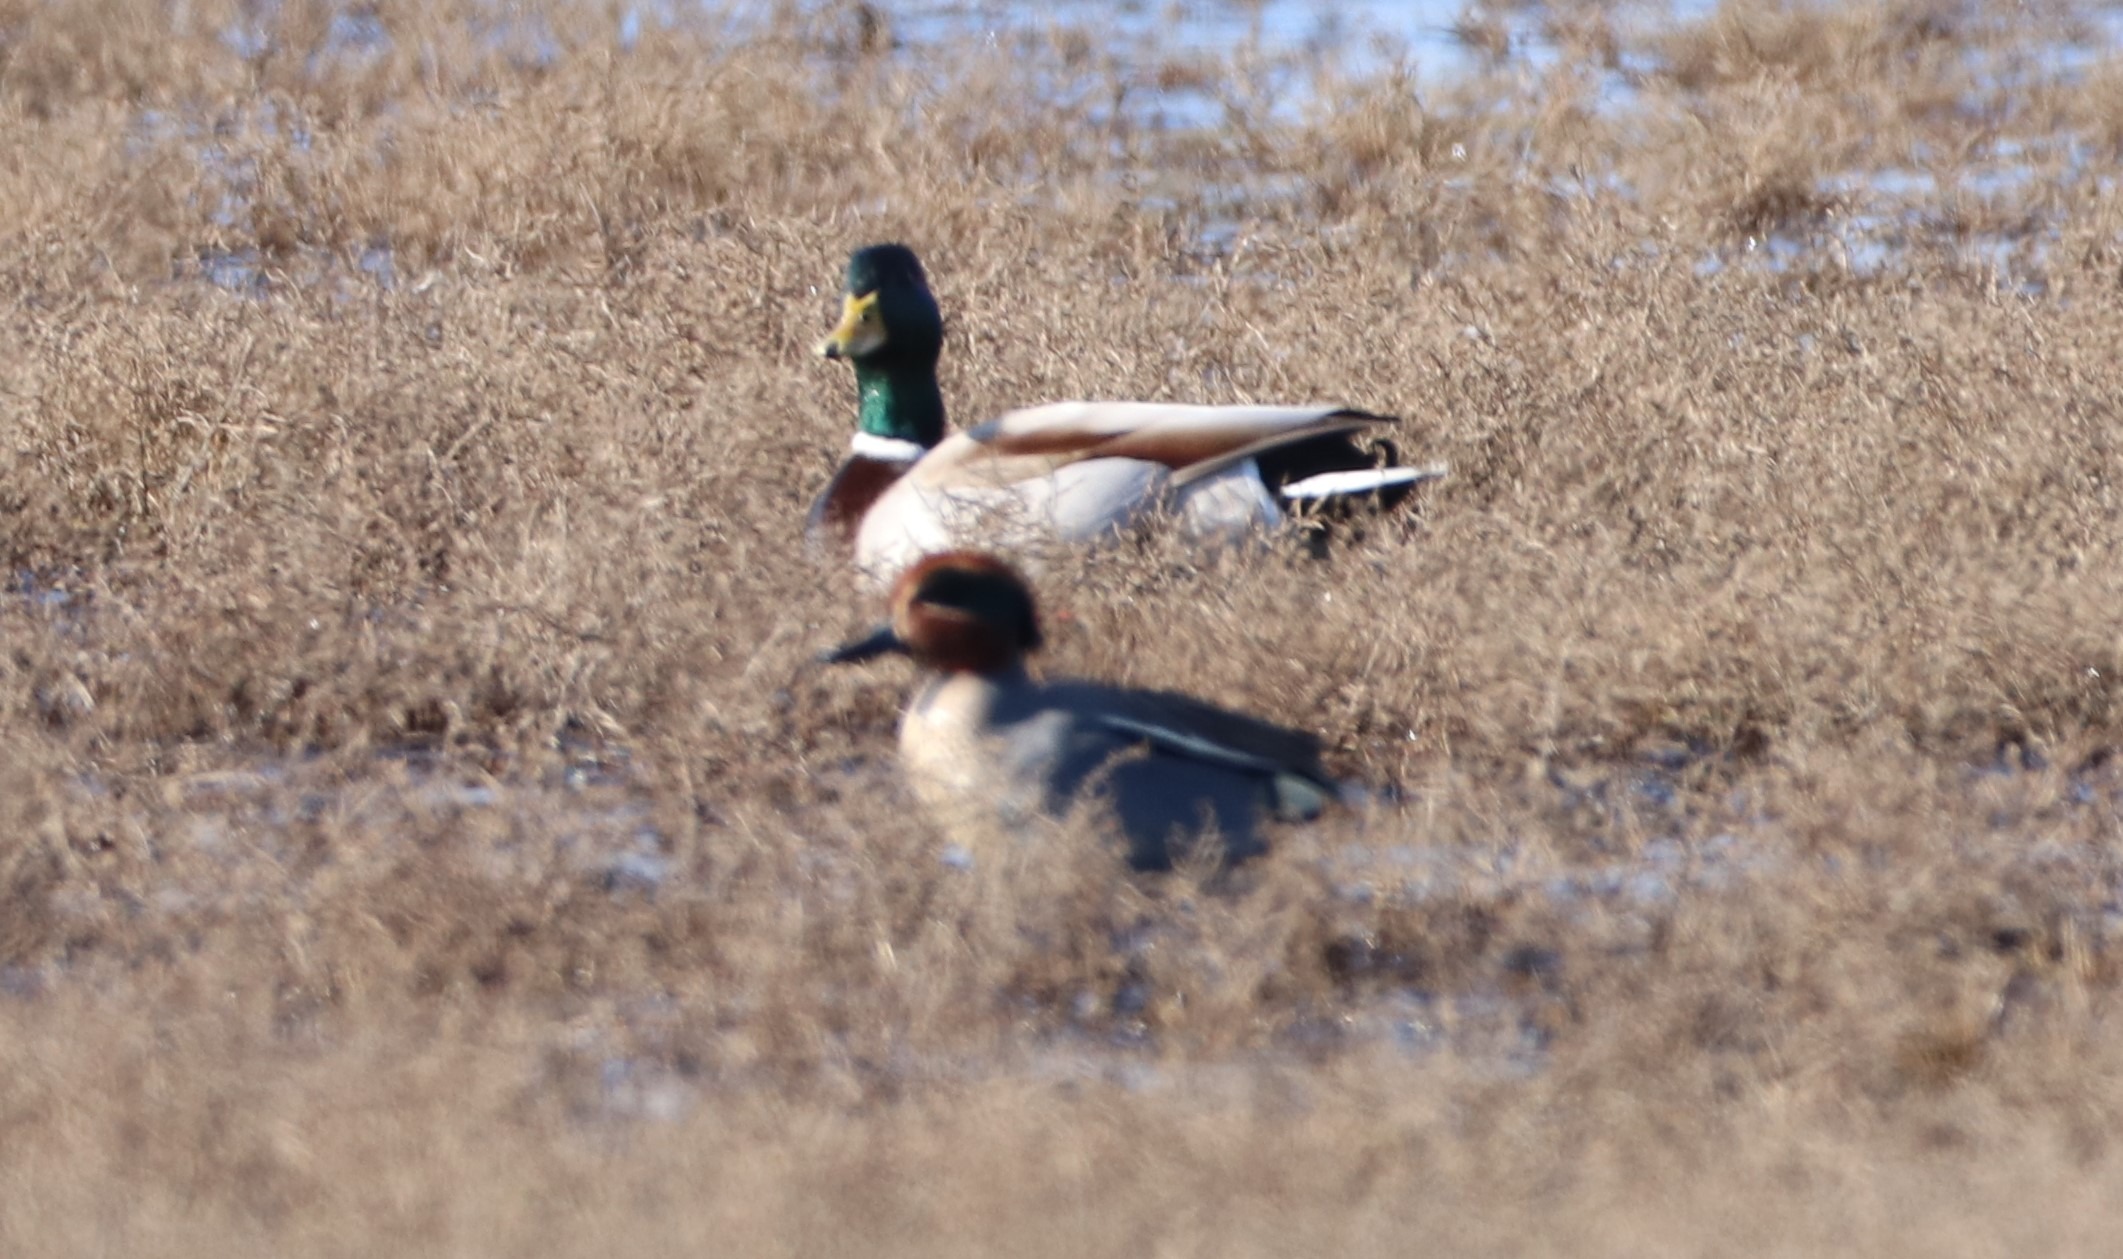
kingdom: Animalia
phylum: Chordata
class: Aves
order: Anseriformes
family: Anatidae
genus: Anas
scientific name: Anas platyrhynchos
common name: Gråand
